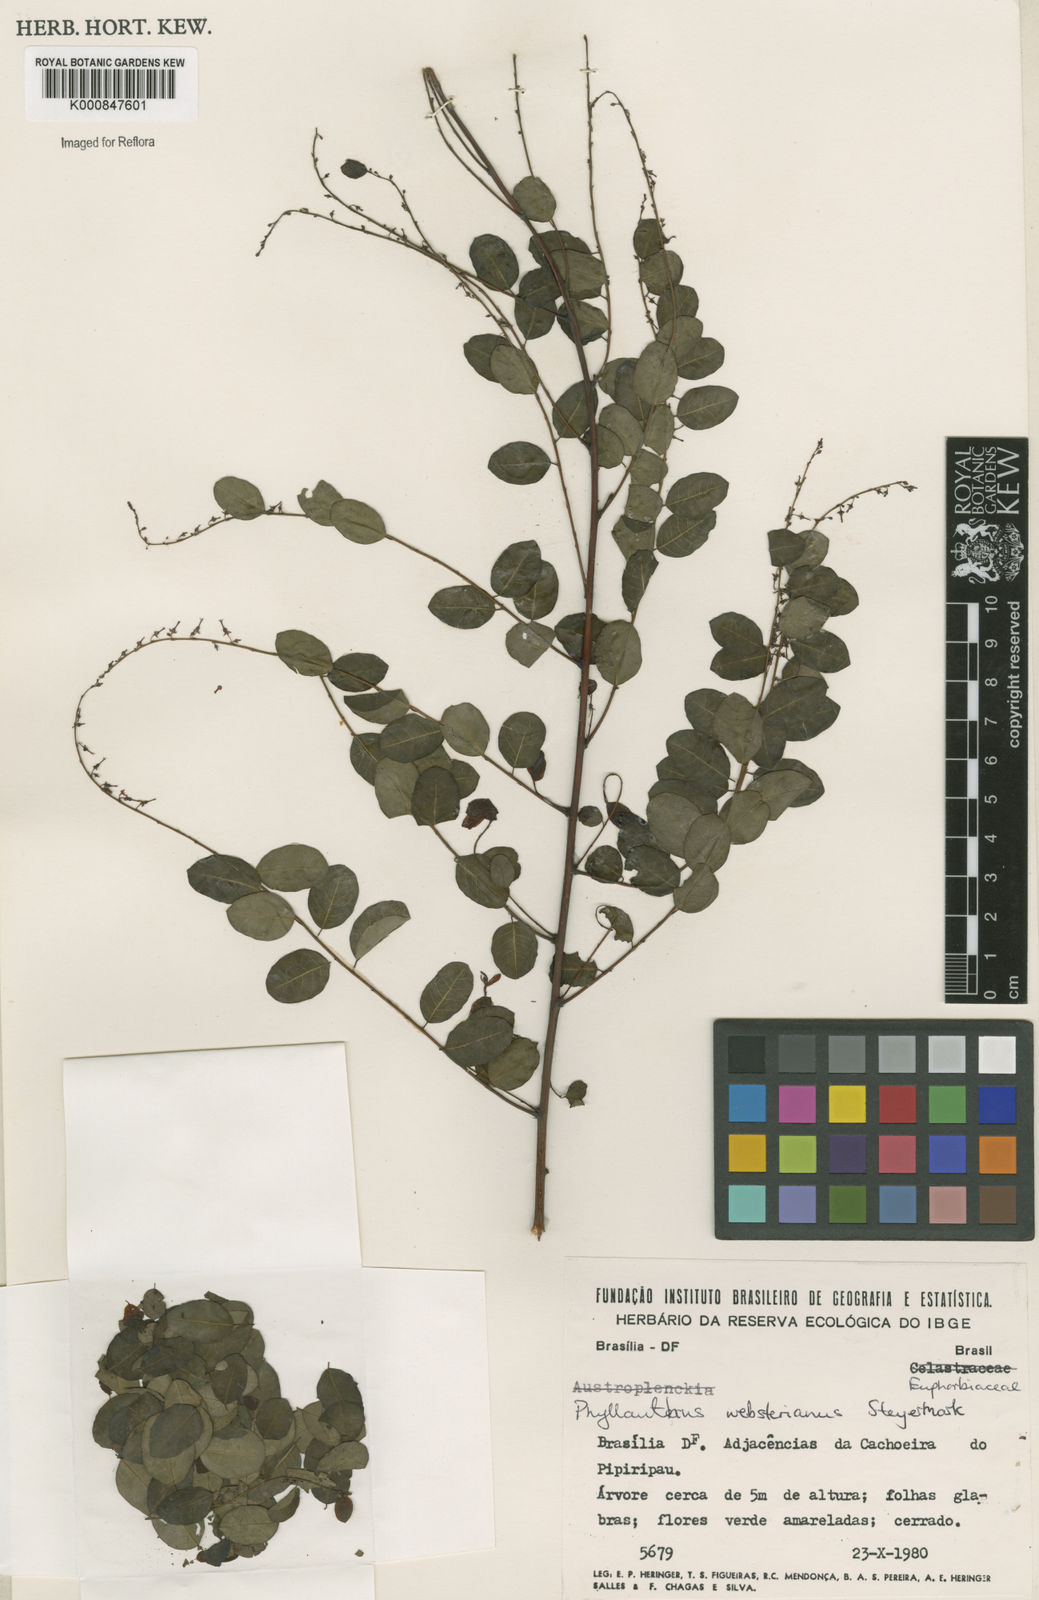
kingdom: Plantae
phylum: Tracheophyta
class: Magnoliopsida
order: Malpighiales
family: Phyllanthaceae
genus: Phyllanthus
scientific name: Phyllanthus websterianus
